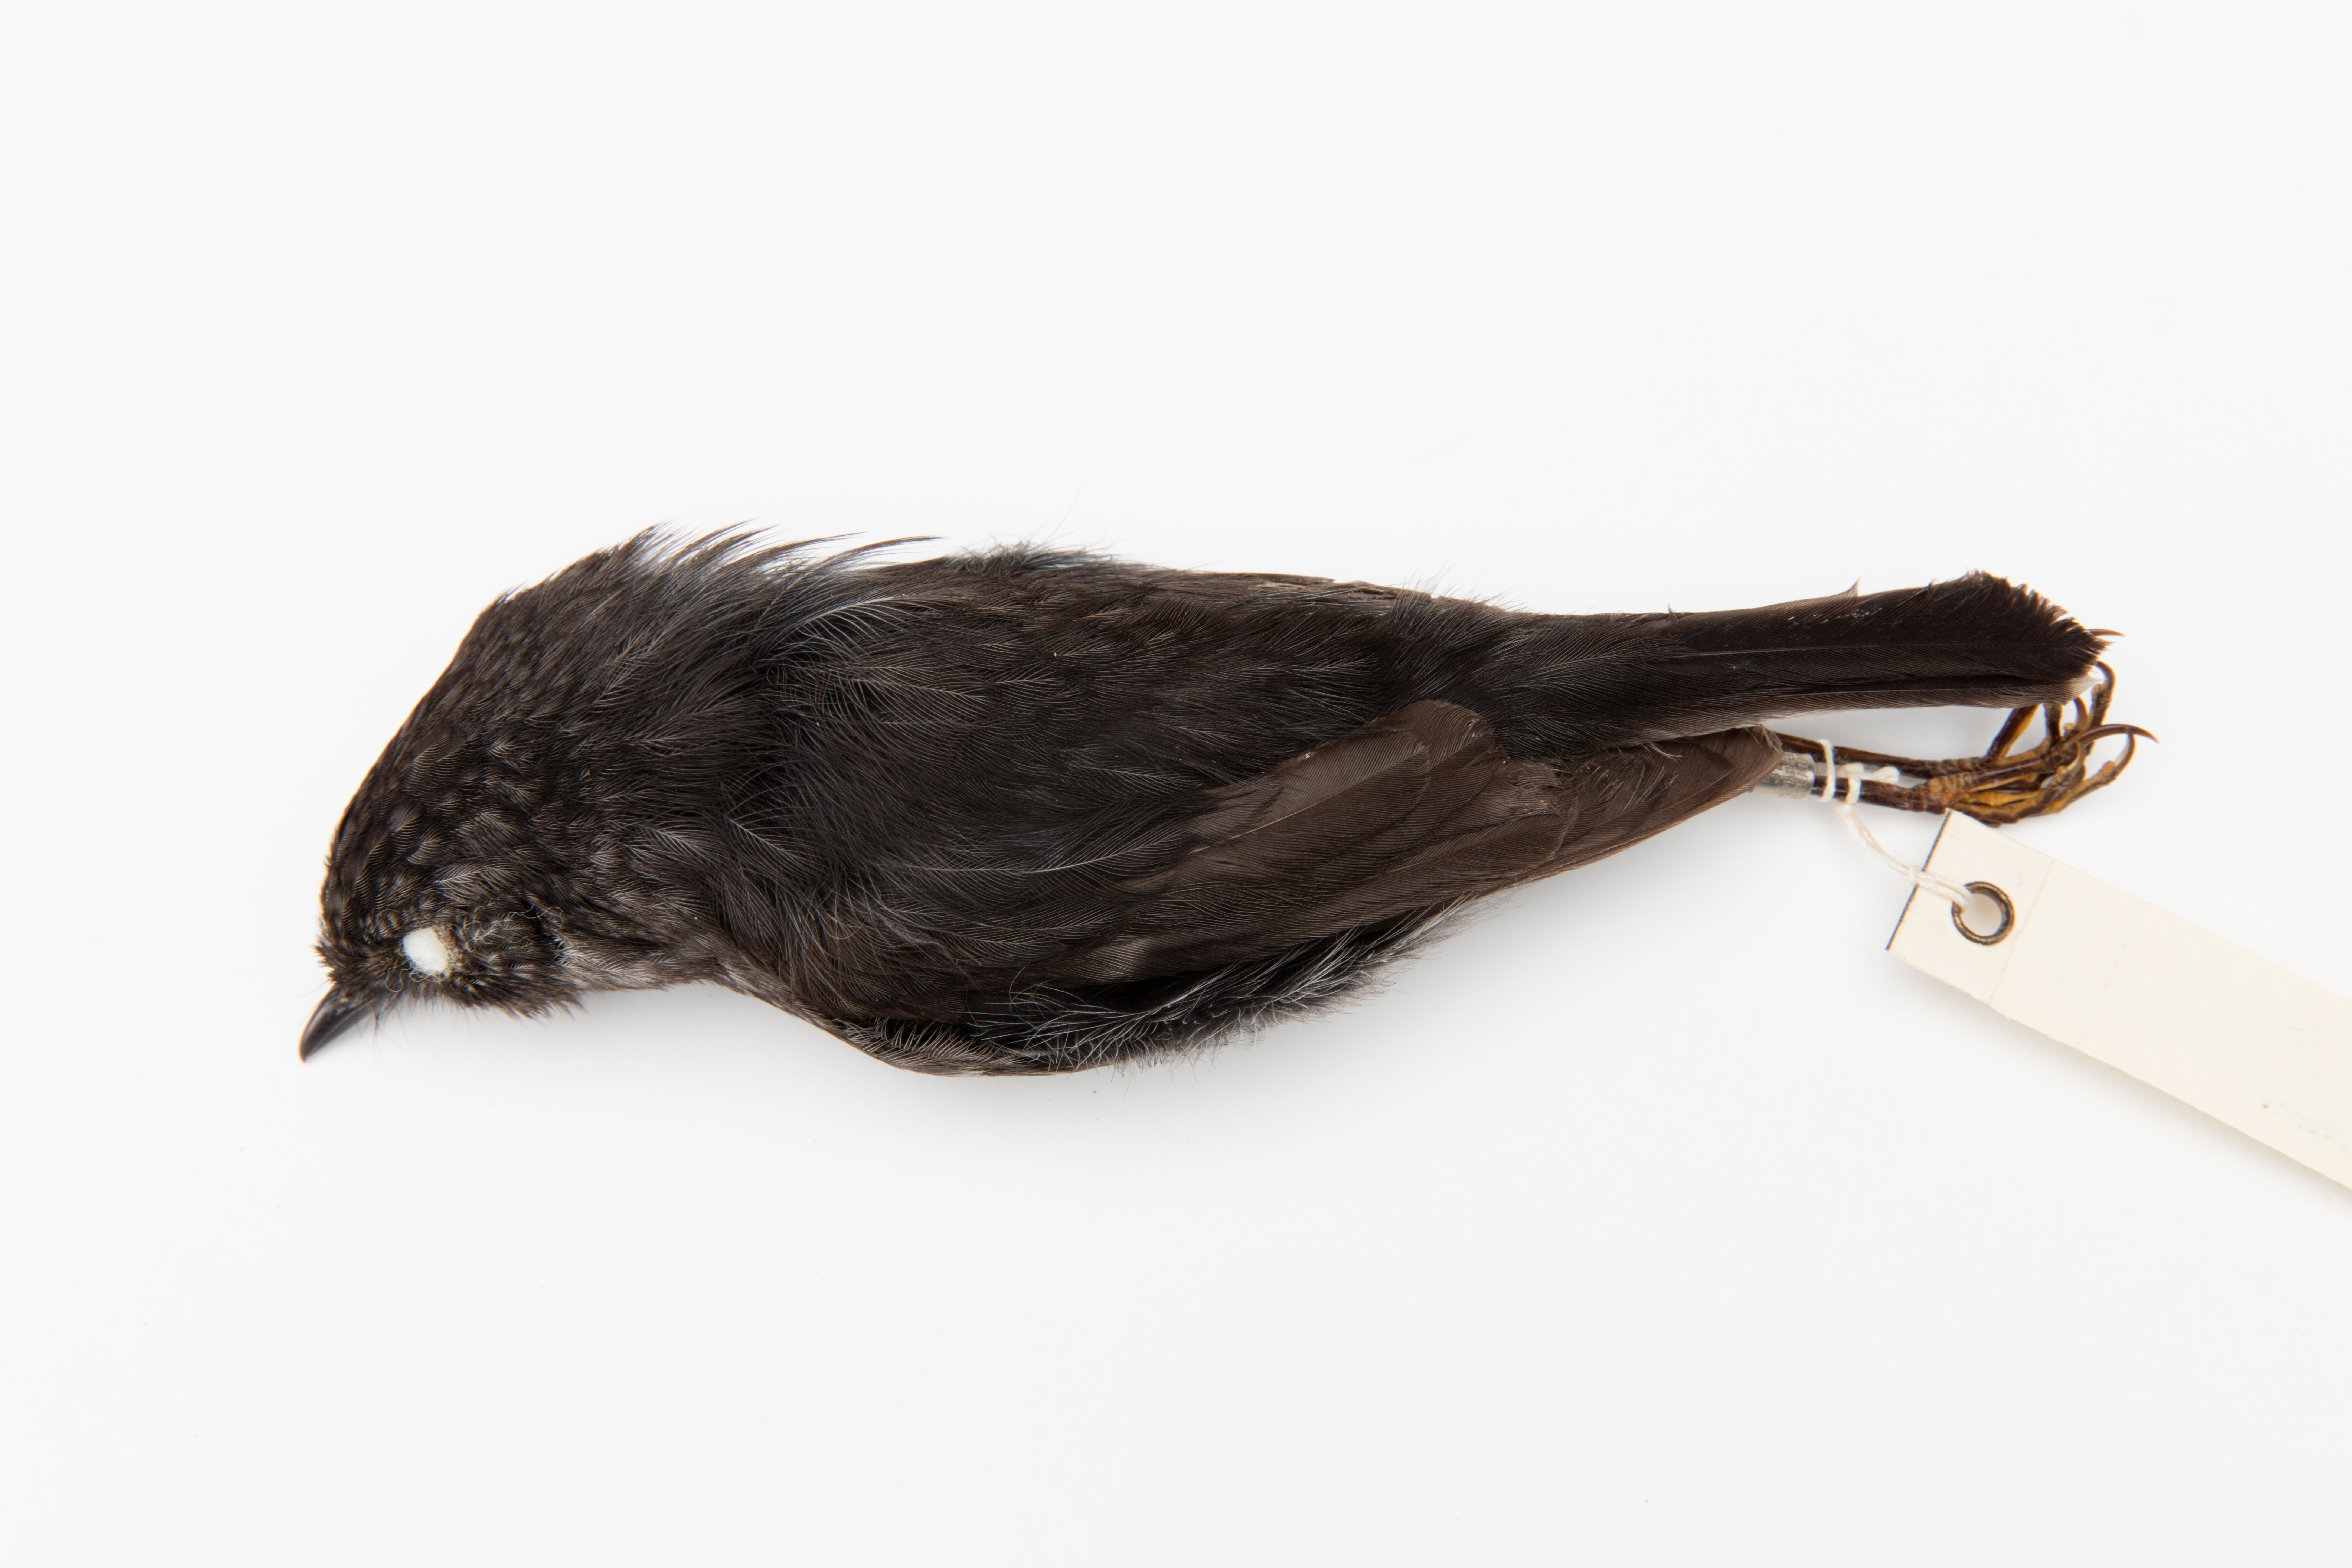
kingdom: Animalia
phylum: Chordata
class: Aves
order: Passeriformes
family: Petroicidae
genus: Petroica
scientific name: Petroica australis
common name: New zealand robin
